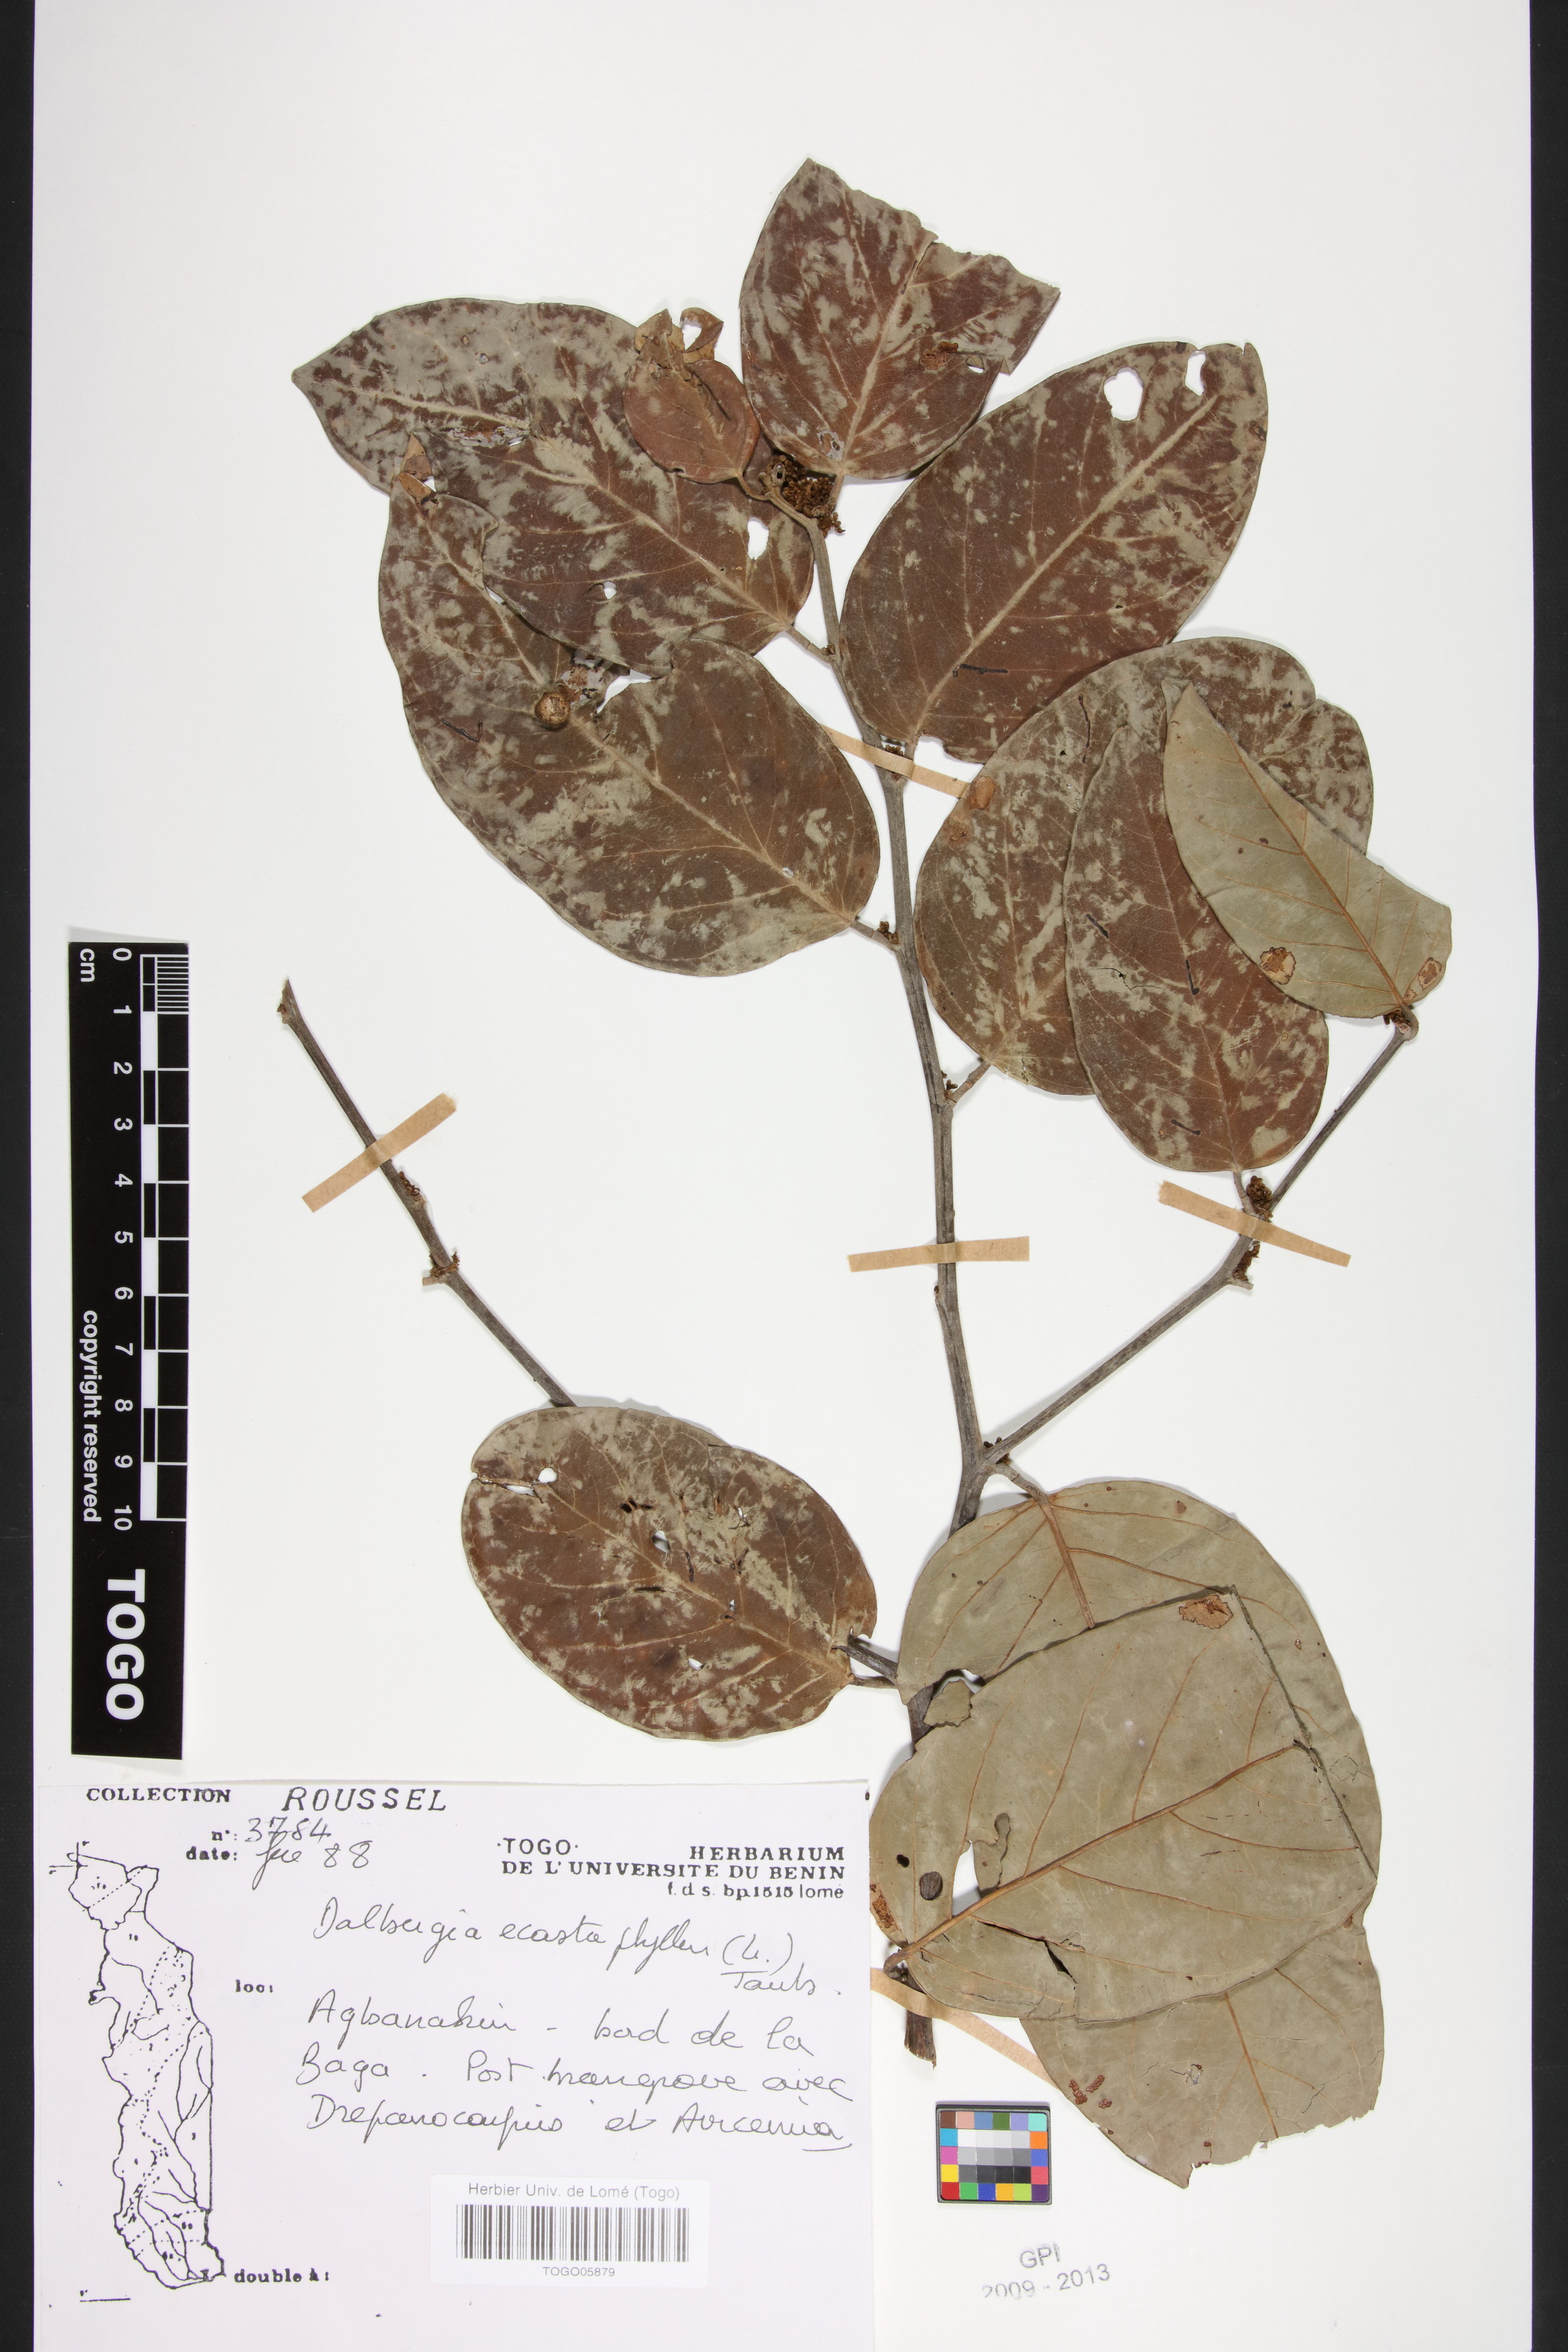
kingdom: Plantae
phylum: Tracheophyta
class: Magnoliopsida
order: Fabales
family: Fabaceae
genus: Dalbergia
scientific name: Dalbergia ecastaphyllum
